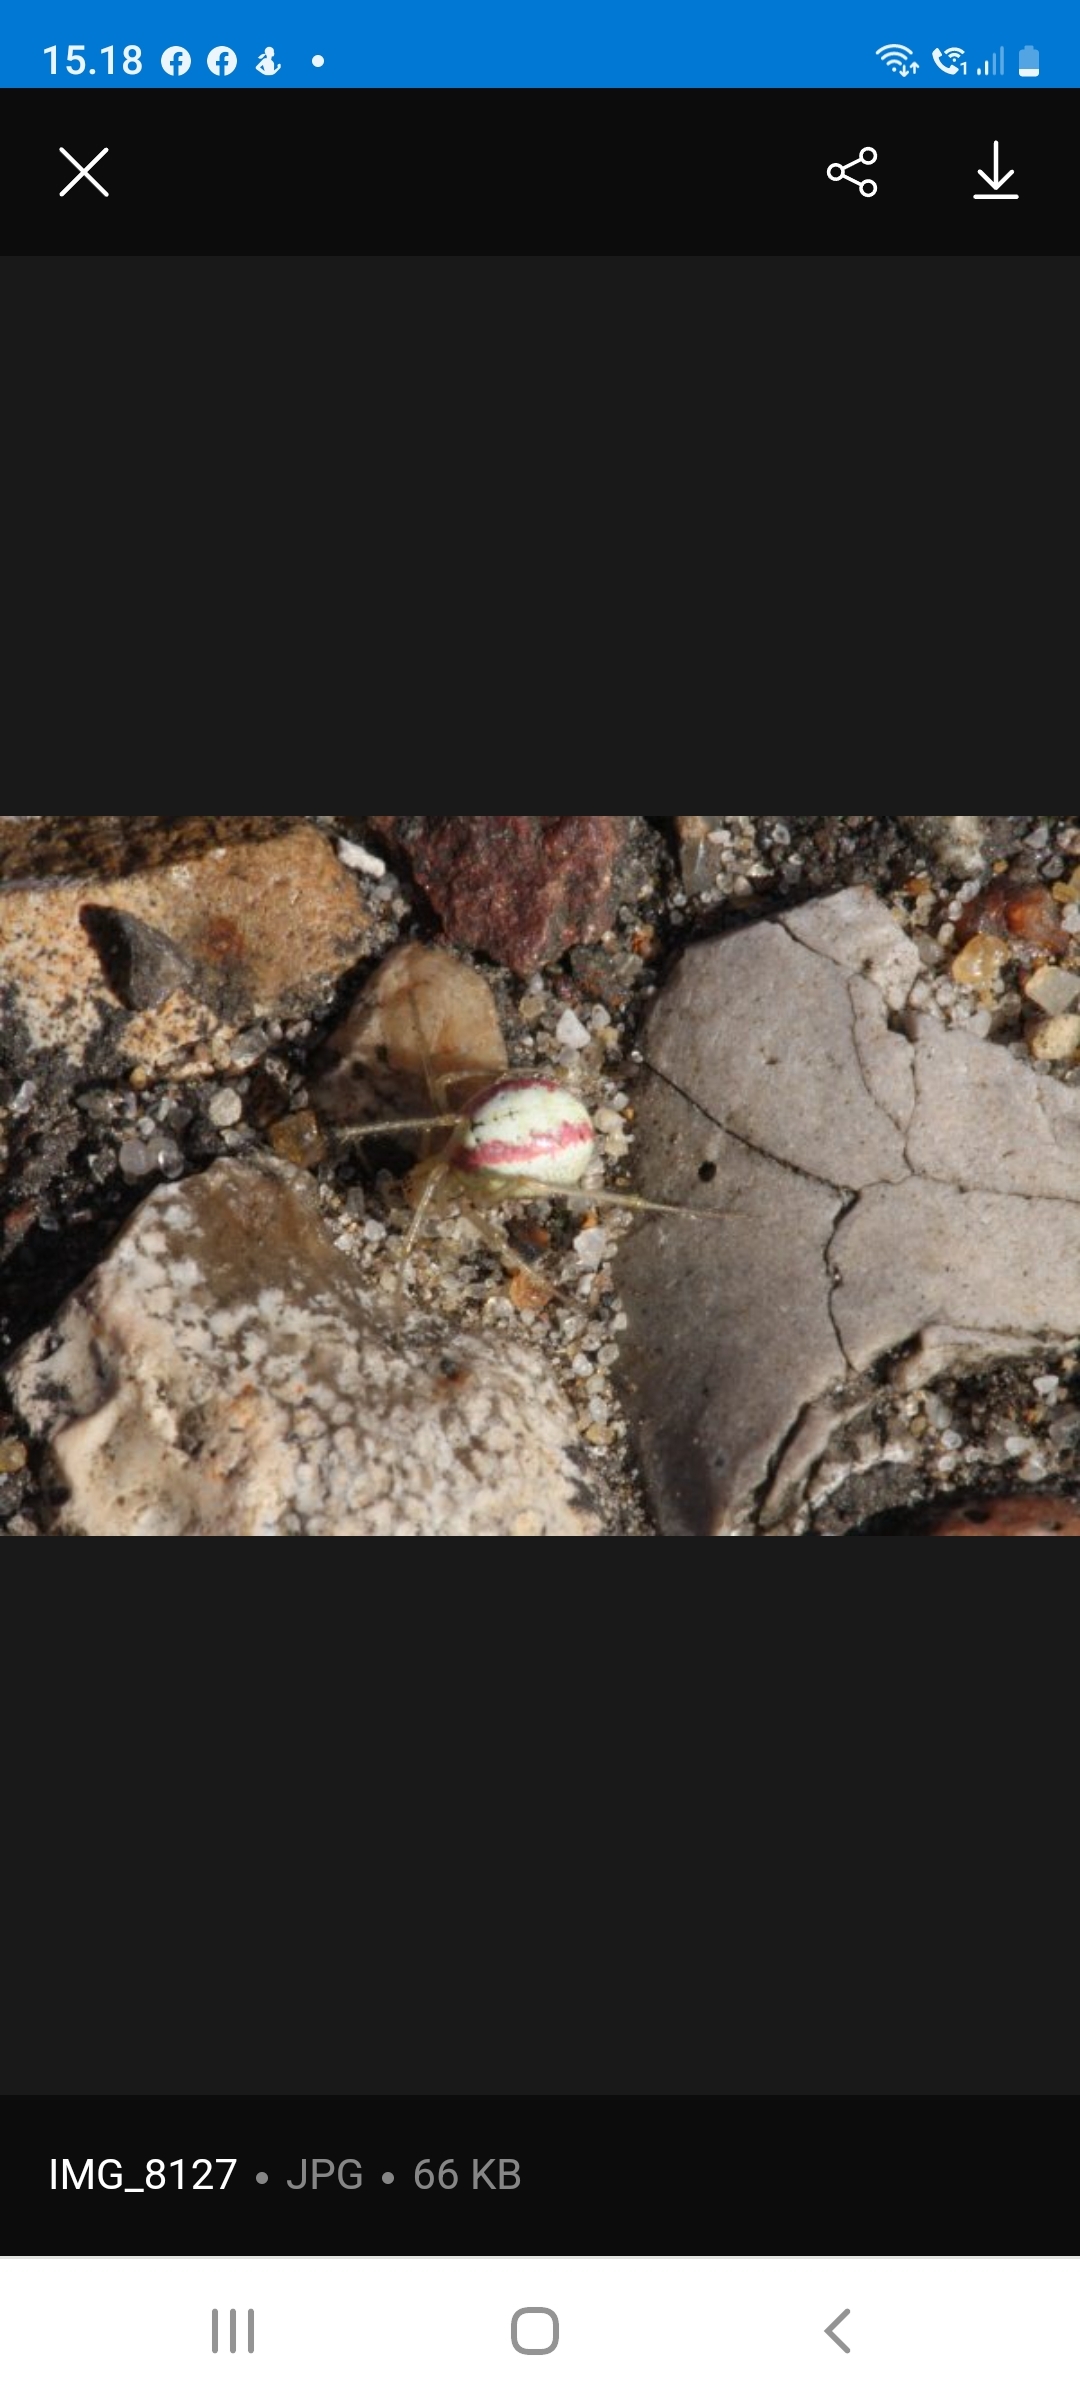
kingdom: Animalia
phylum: Arthropoda
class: Arachnida
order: Araneae
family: Theridiidae
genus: Enoplognatha
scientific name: Enoplognatha
